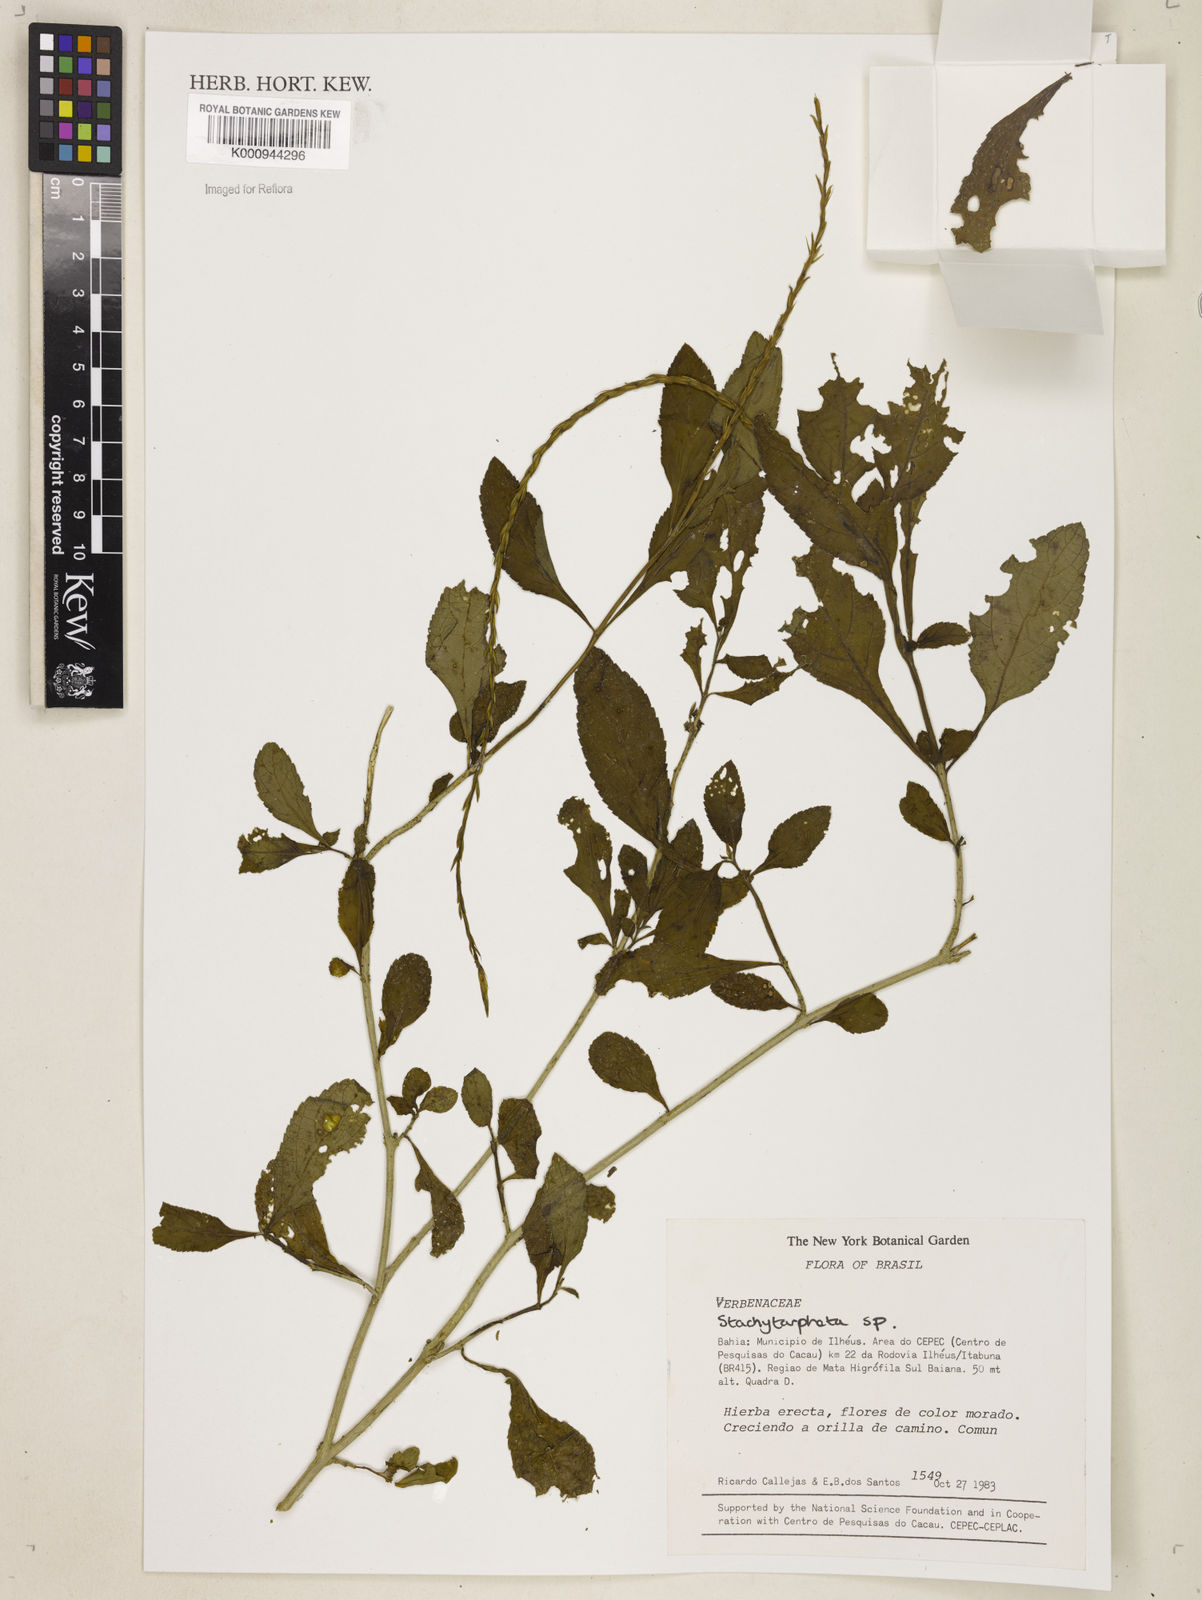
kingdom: Plantae
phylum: Tracheophyta
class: Magnoliopsida
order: Lamiales
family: Verbenaceae
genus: Stachytarpheta
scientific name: Stachytarpheta
